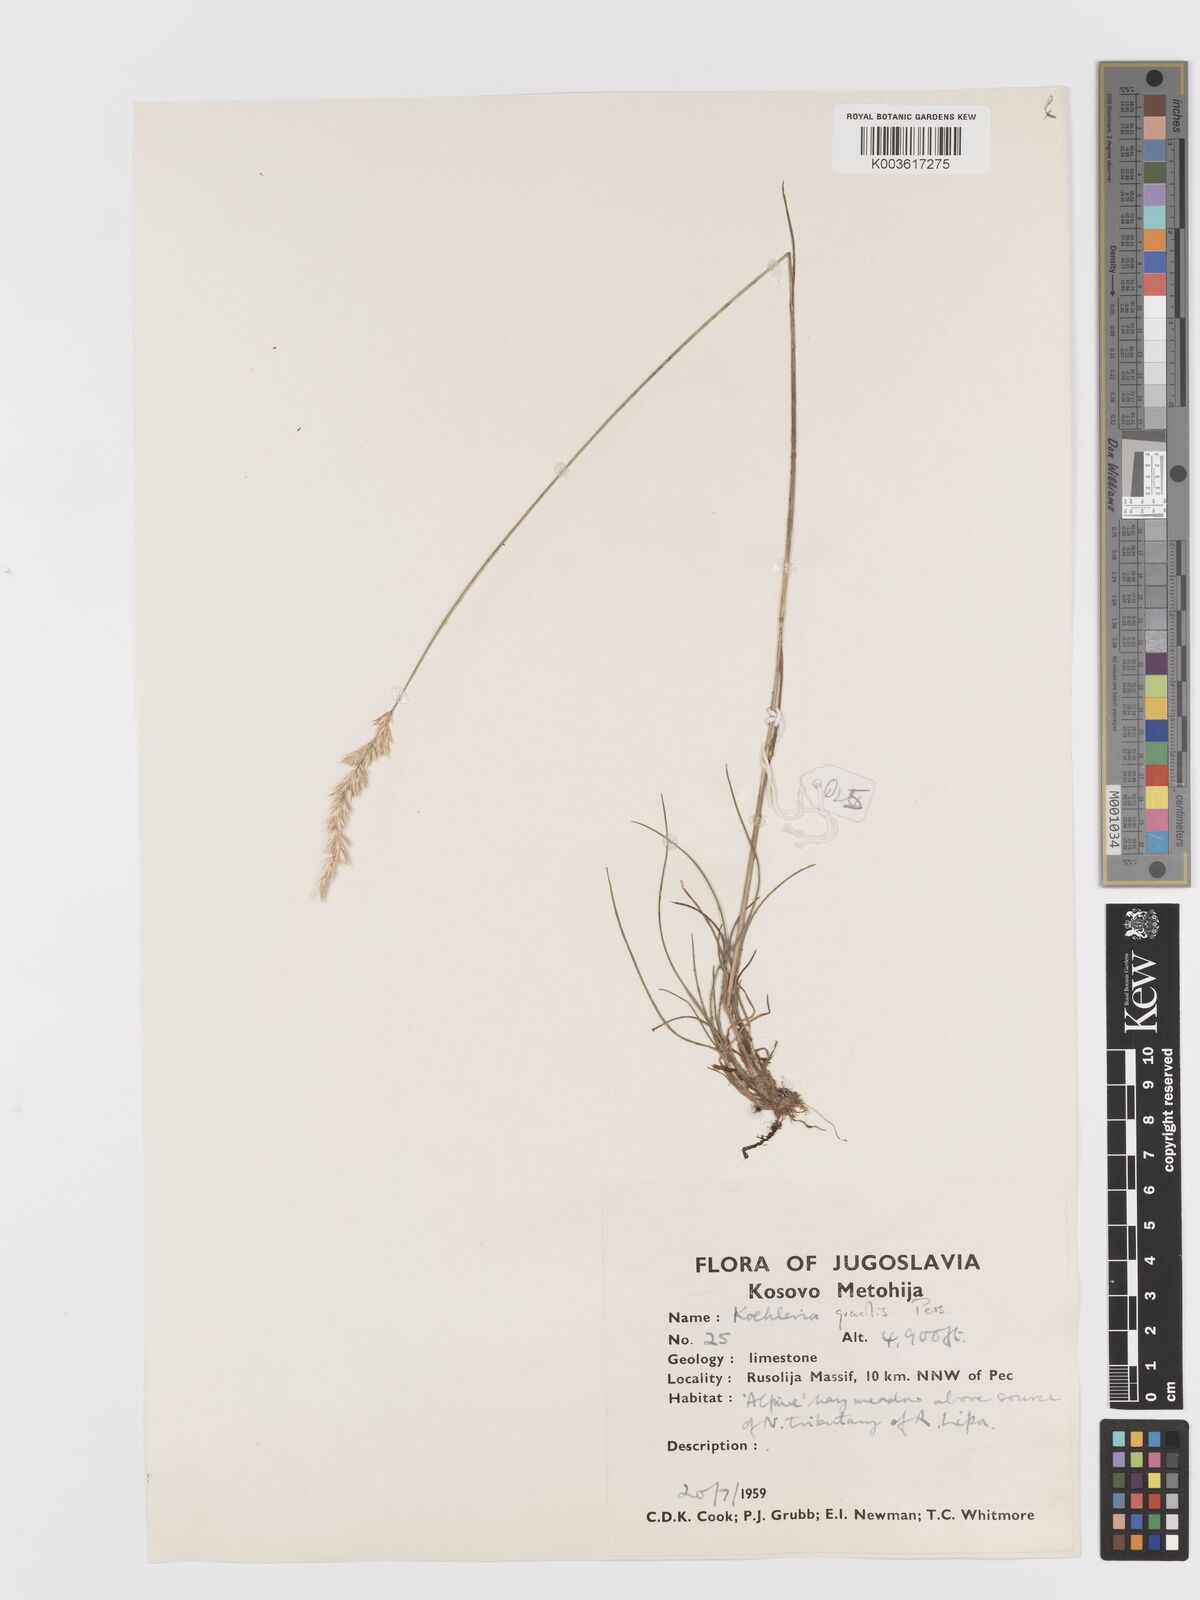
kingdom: Plantae
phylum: Tracheophyta
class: Liliopsida
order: Poales
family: Poaceae
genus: Koeleria
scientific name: Koeleria macrantha
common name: Crested hair-grass
